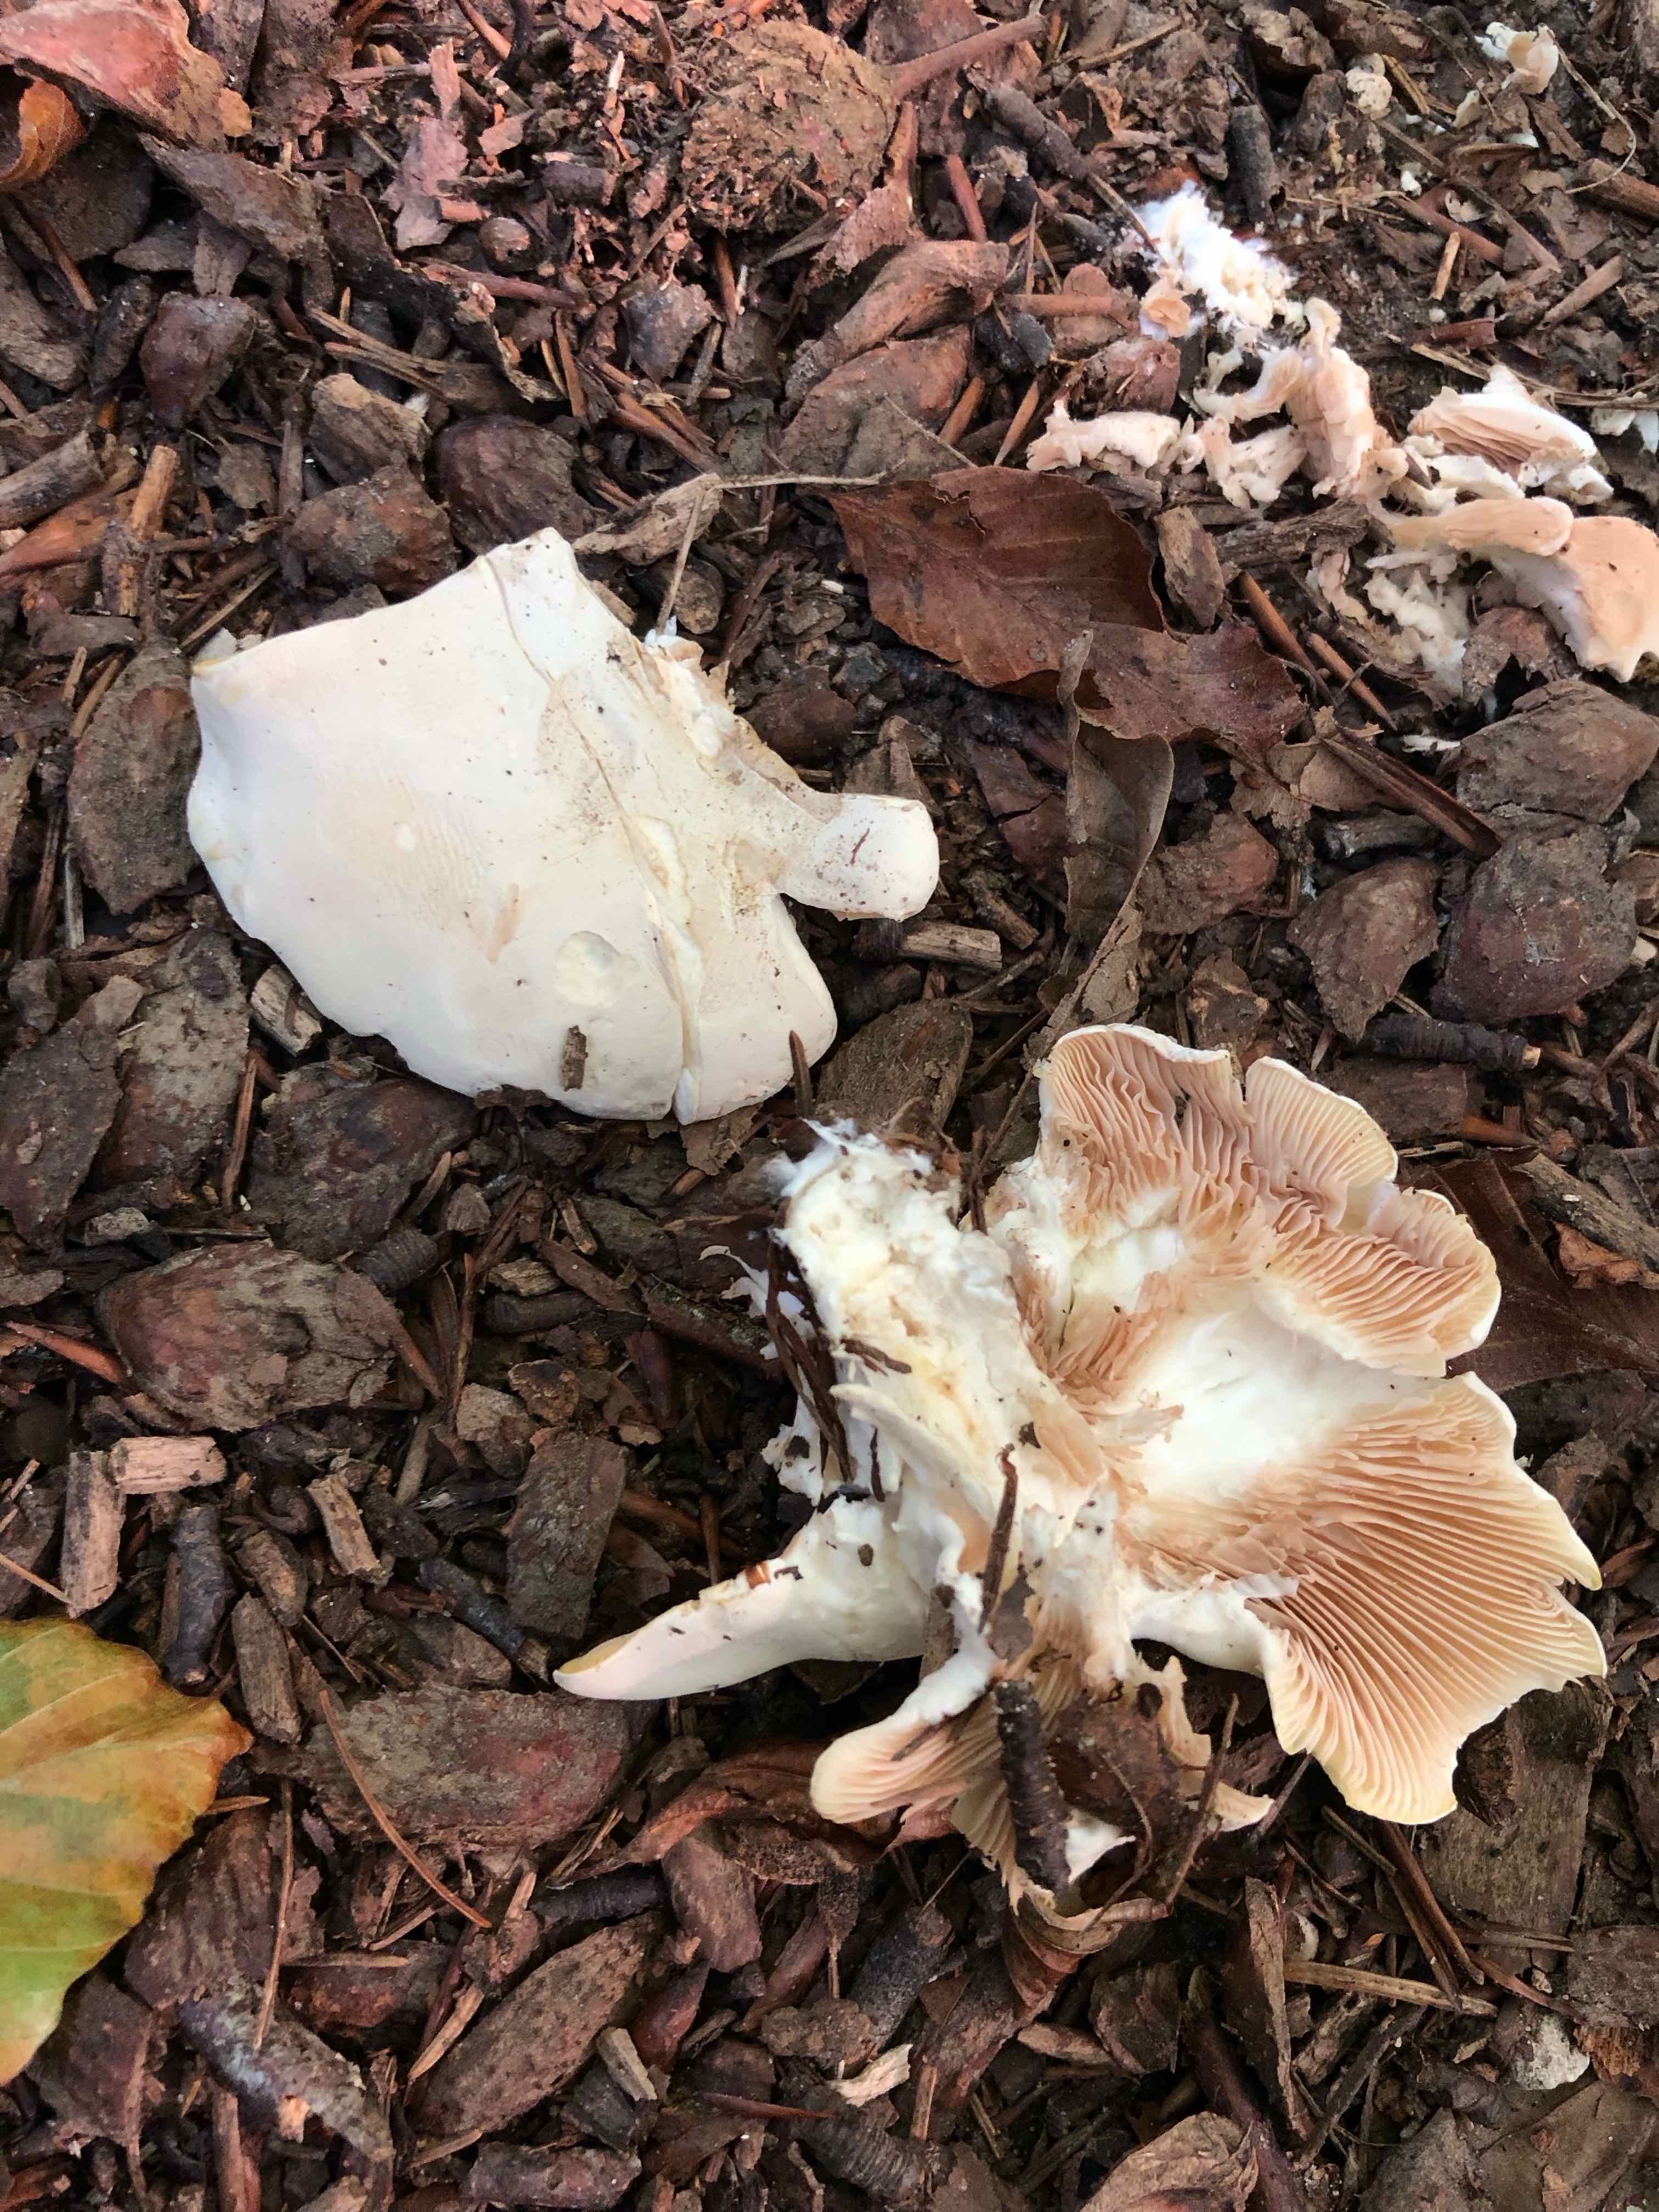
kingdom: Fungi
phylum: Basidiomycota
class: Agaricomycetes
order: Agaricales
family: Entolomataceae
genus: Clitopilus
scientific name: Clitopilus prunulus
